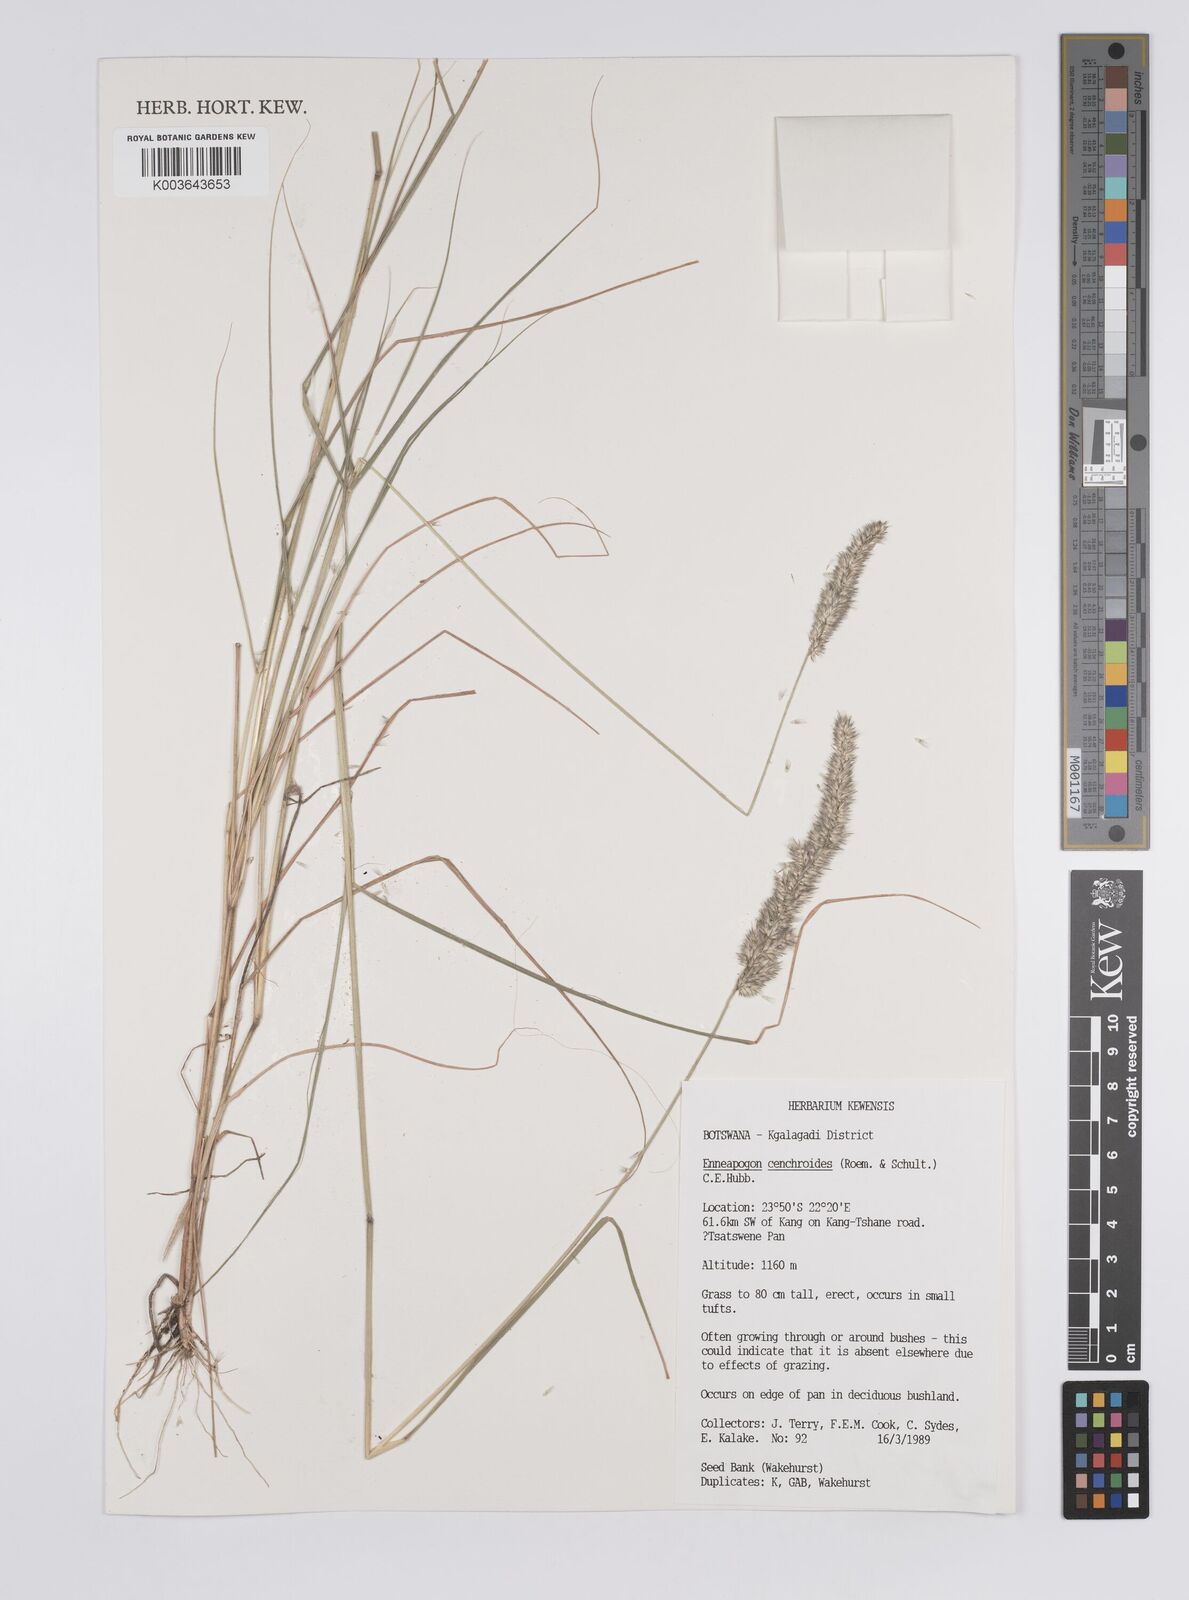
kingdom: Plantae
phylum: Tracheophyta
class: Liliopsida
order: Poales
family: Poaceae
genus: Enneapogon
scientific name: Enneapogon cenchroides
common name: Soft feather pappusgrass
